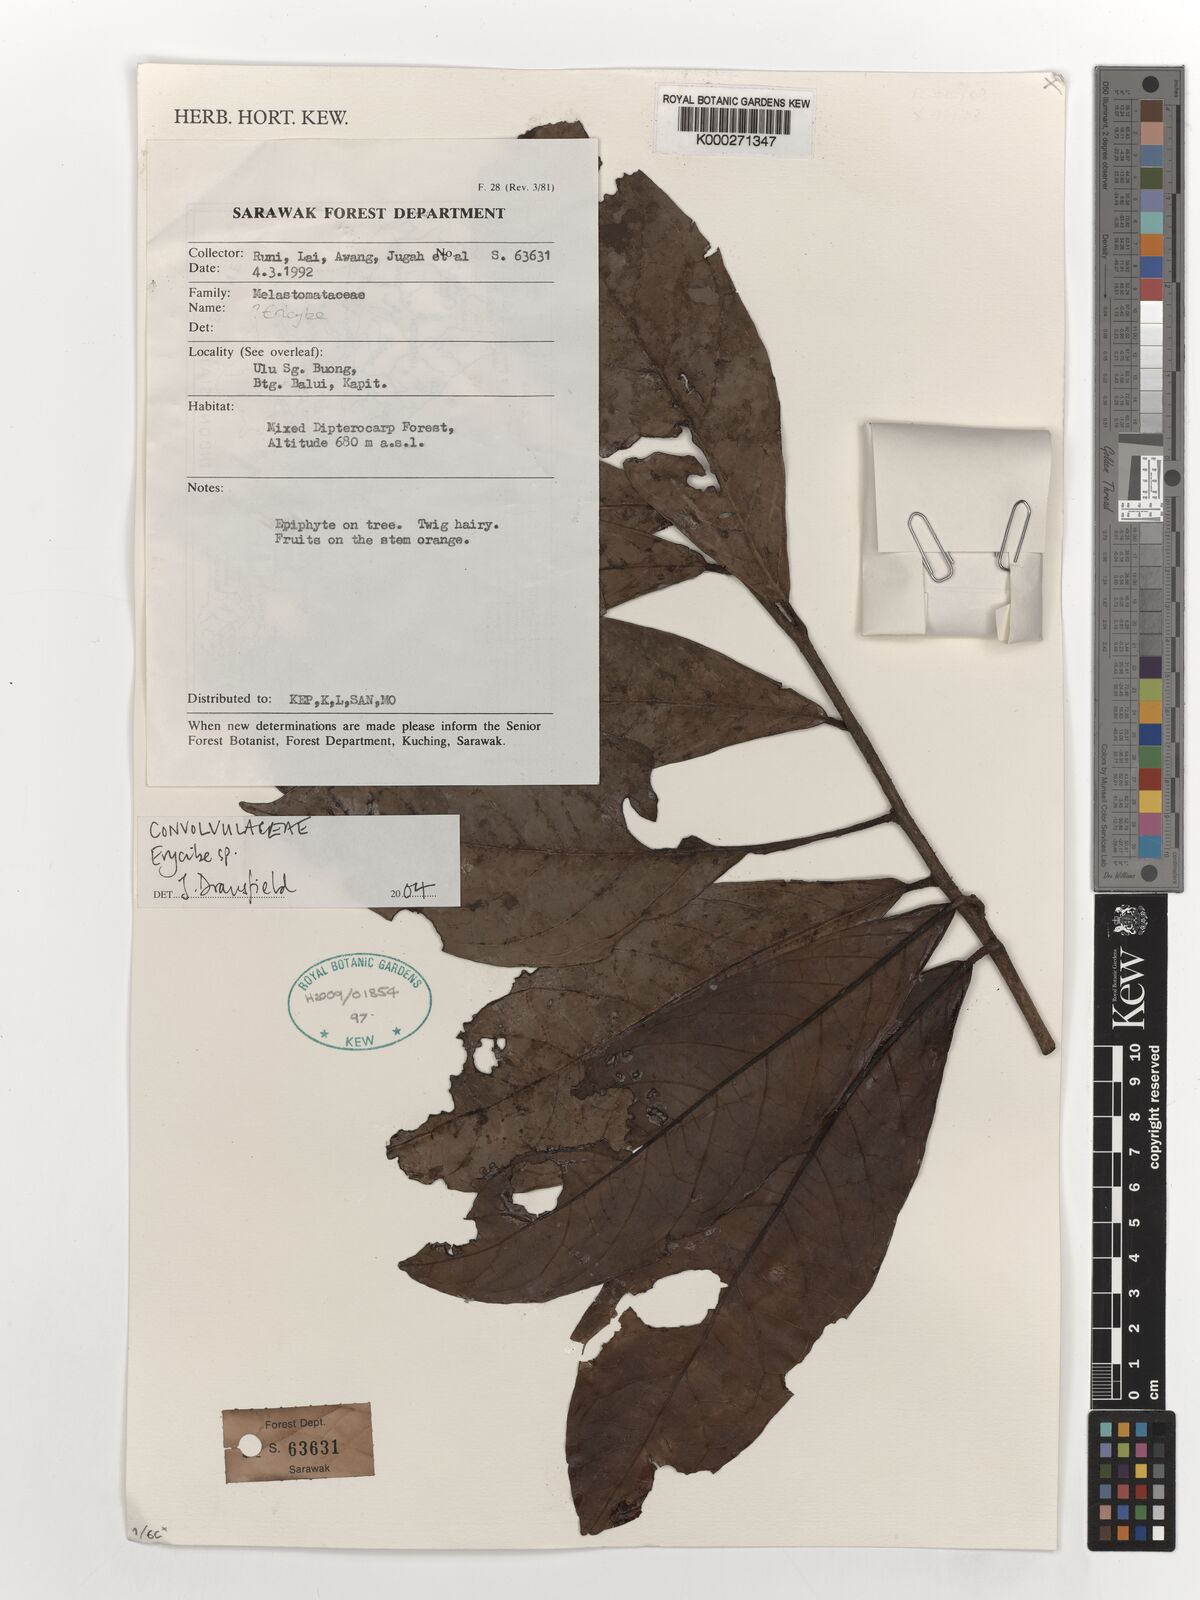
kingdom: Plantae
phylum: Tracheophyta
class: Magnoliopsida
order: Solanales
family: Convolvulaceae
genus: Erycibe
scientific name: Erycibe
